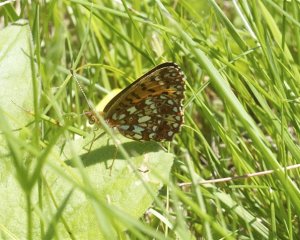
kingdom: Animalia
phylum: Arthropoda
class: Insecta
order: Lepidoptera
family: Nymphalidae
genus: Boloria
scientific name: Boloria selene
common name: Silver-bordered Fritillary
